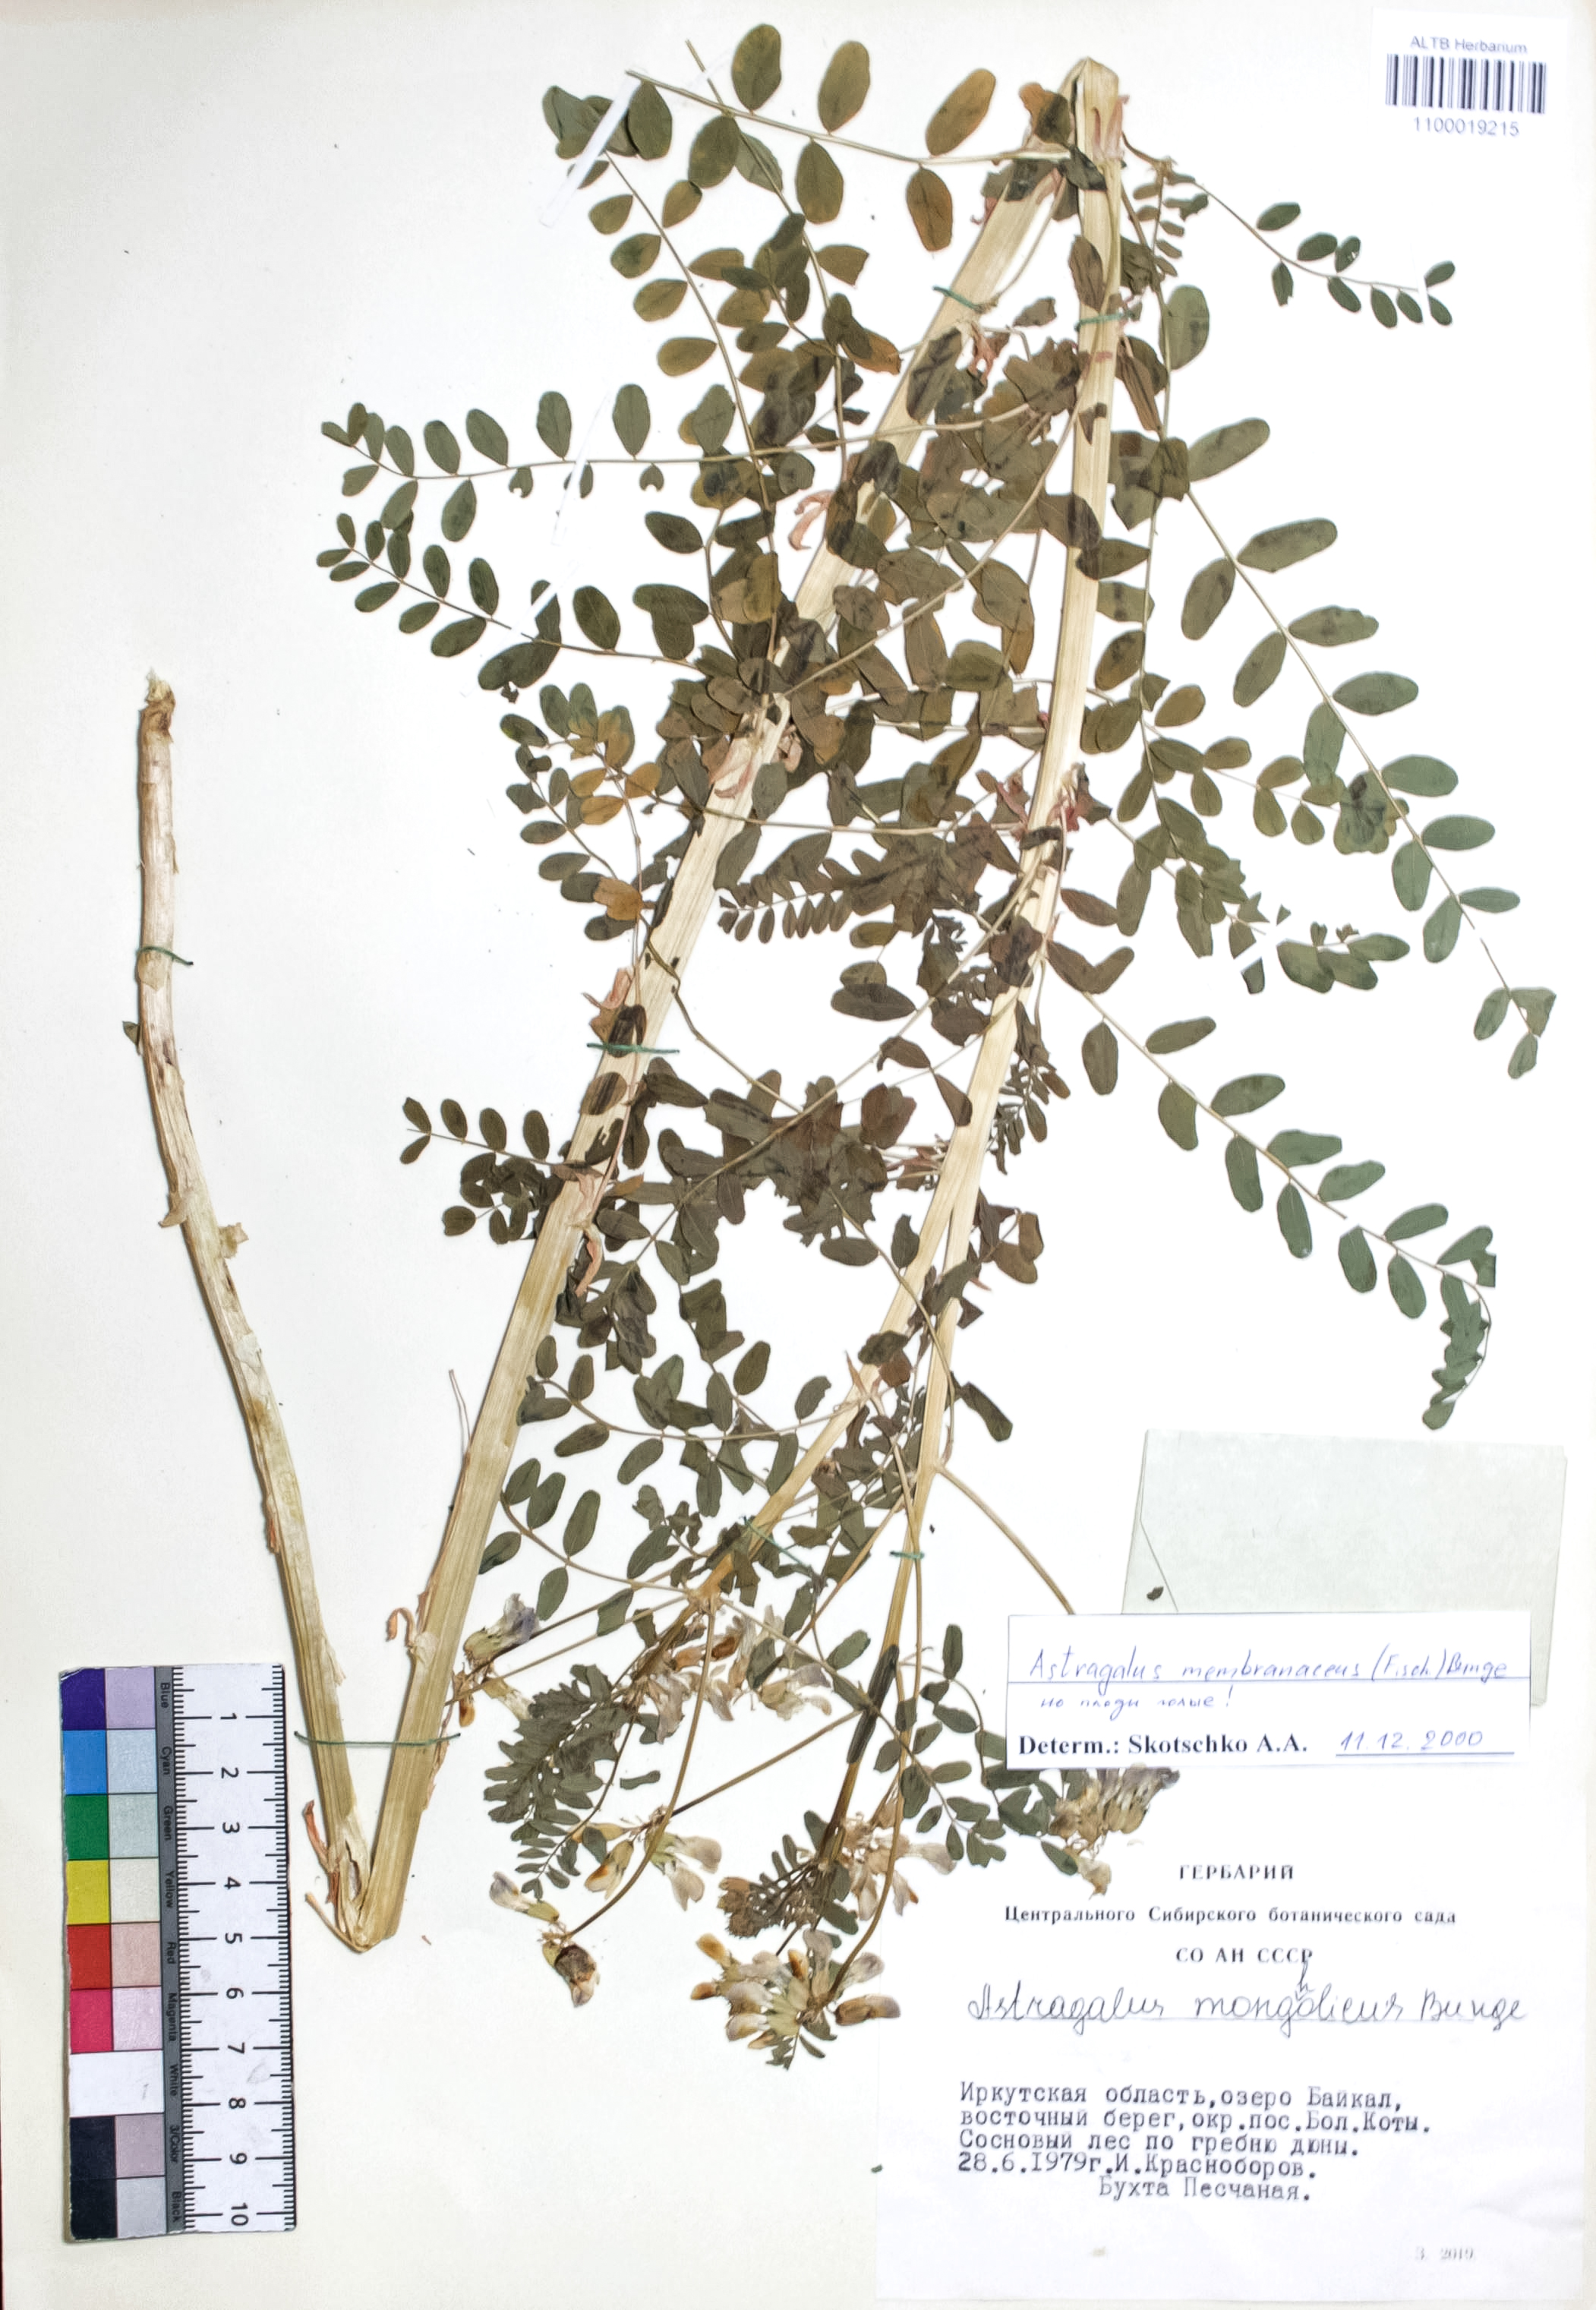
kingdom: Plantae
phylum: Tracheophyta
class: Magnoliopsida
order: Fabales
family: Fabaceae
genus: Astragalus
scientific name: Astragalus mongholicus
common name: Membranous milk-vetch
